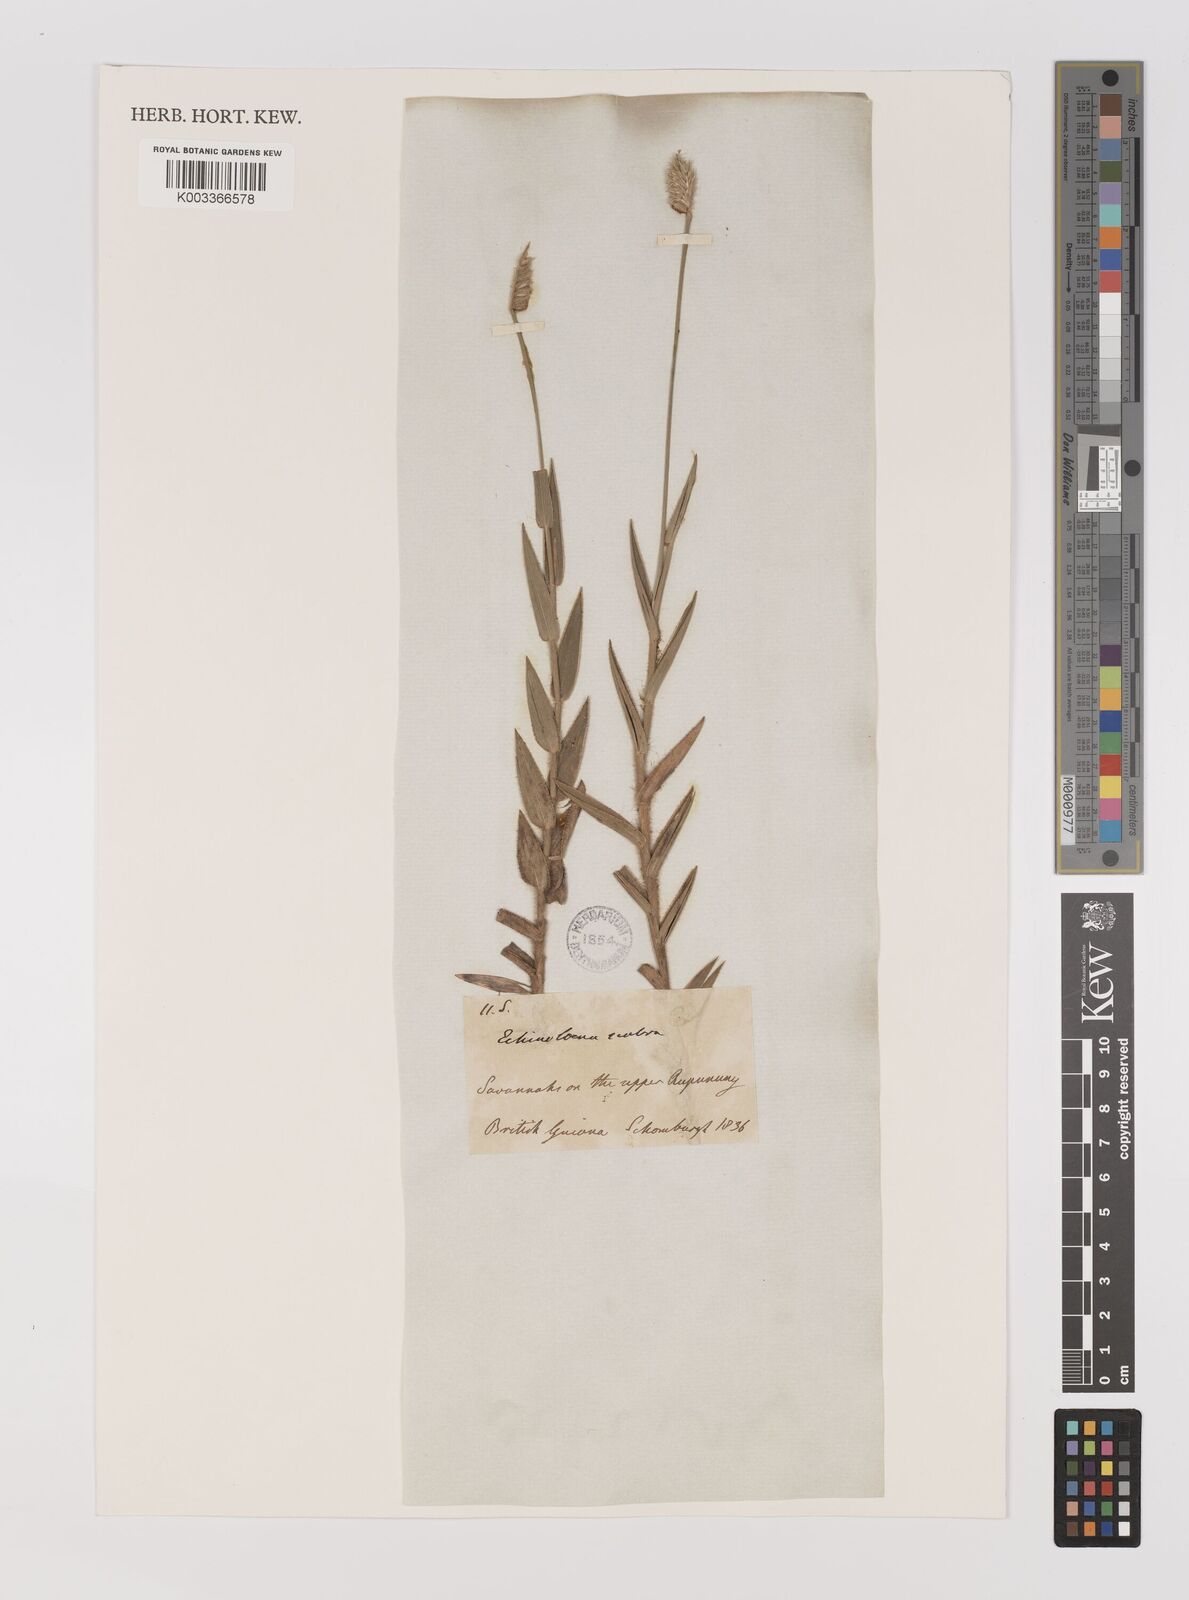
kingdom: Plantae
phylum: Tracheophyta
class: Liliopsida
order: Poales
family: Poaceae
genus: Echinolaena
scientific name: Echinolaena inflexa
